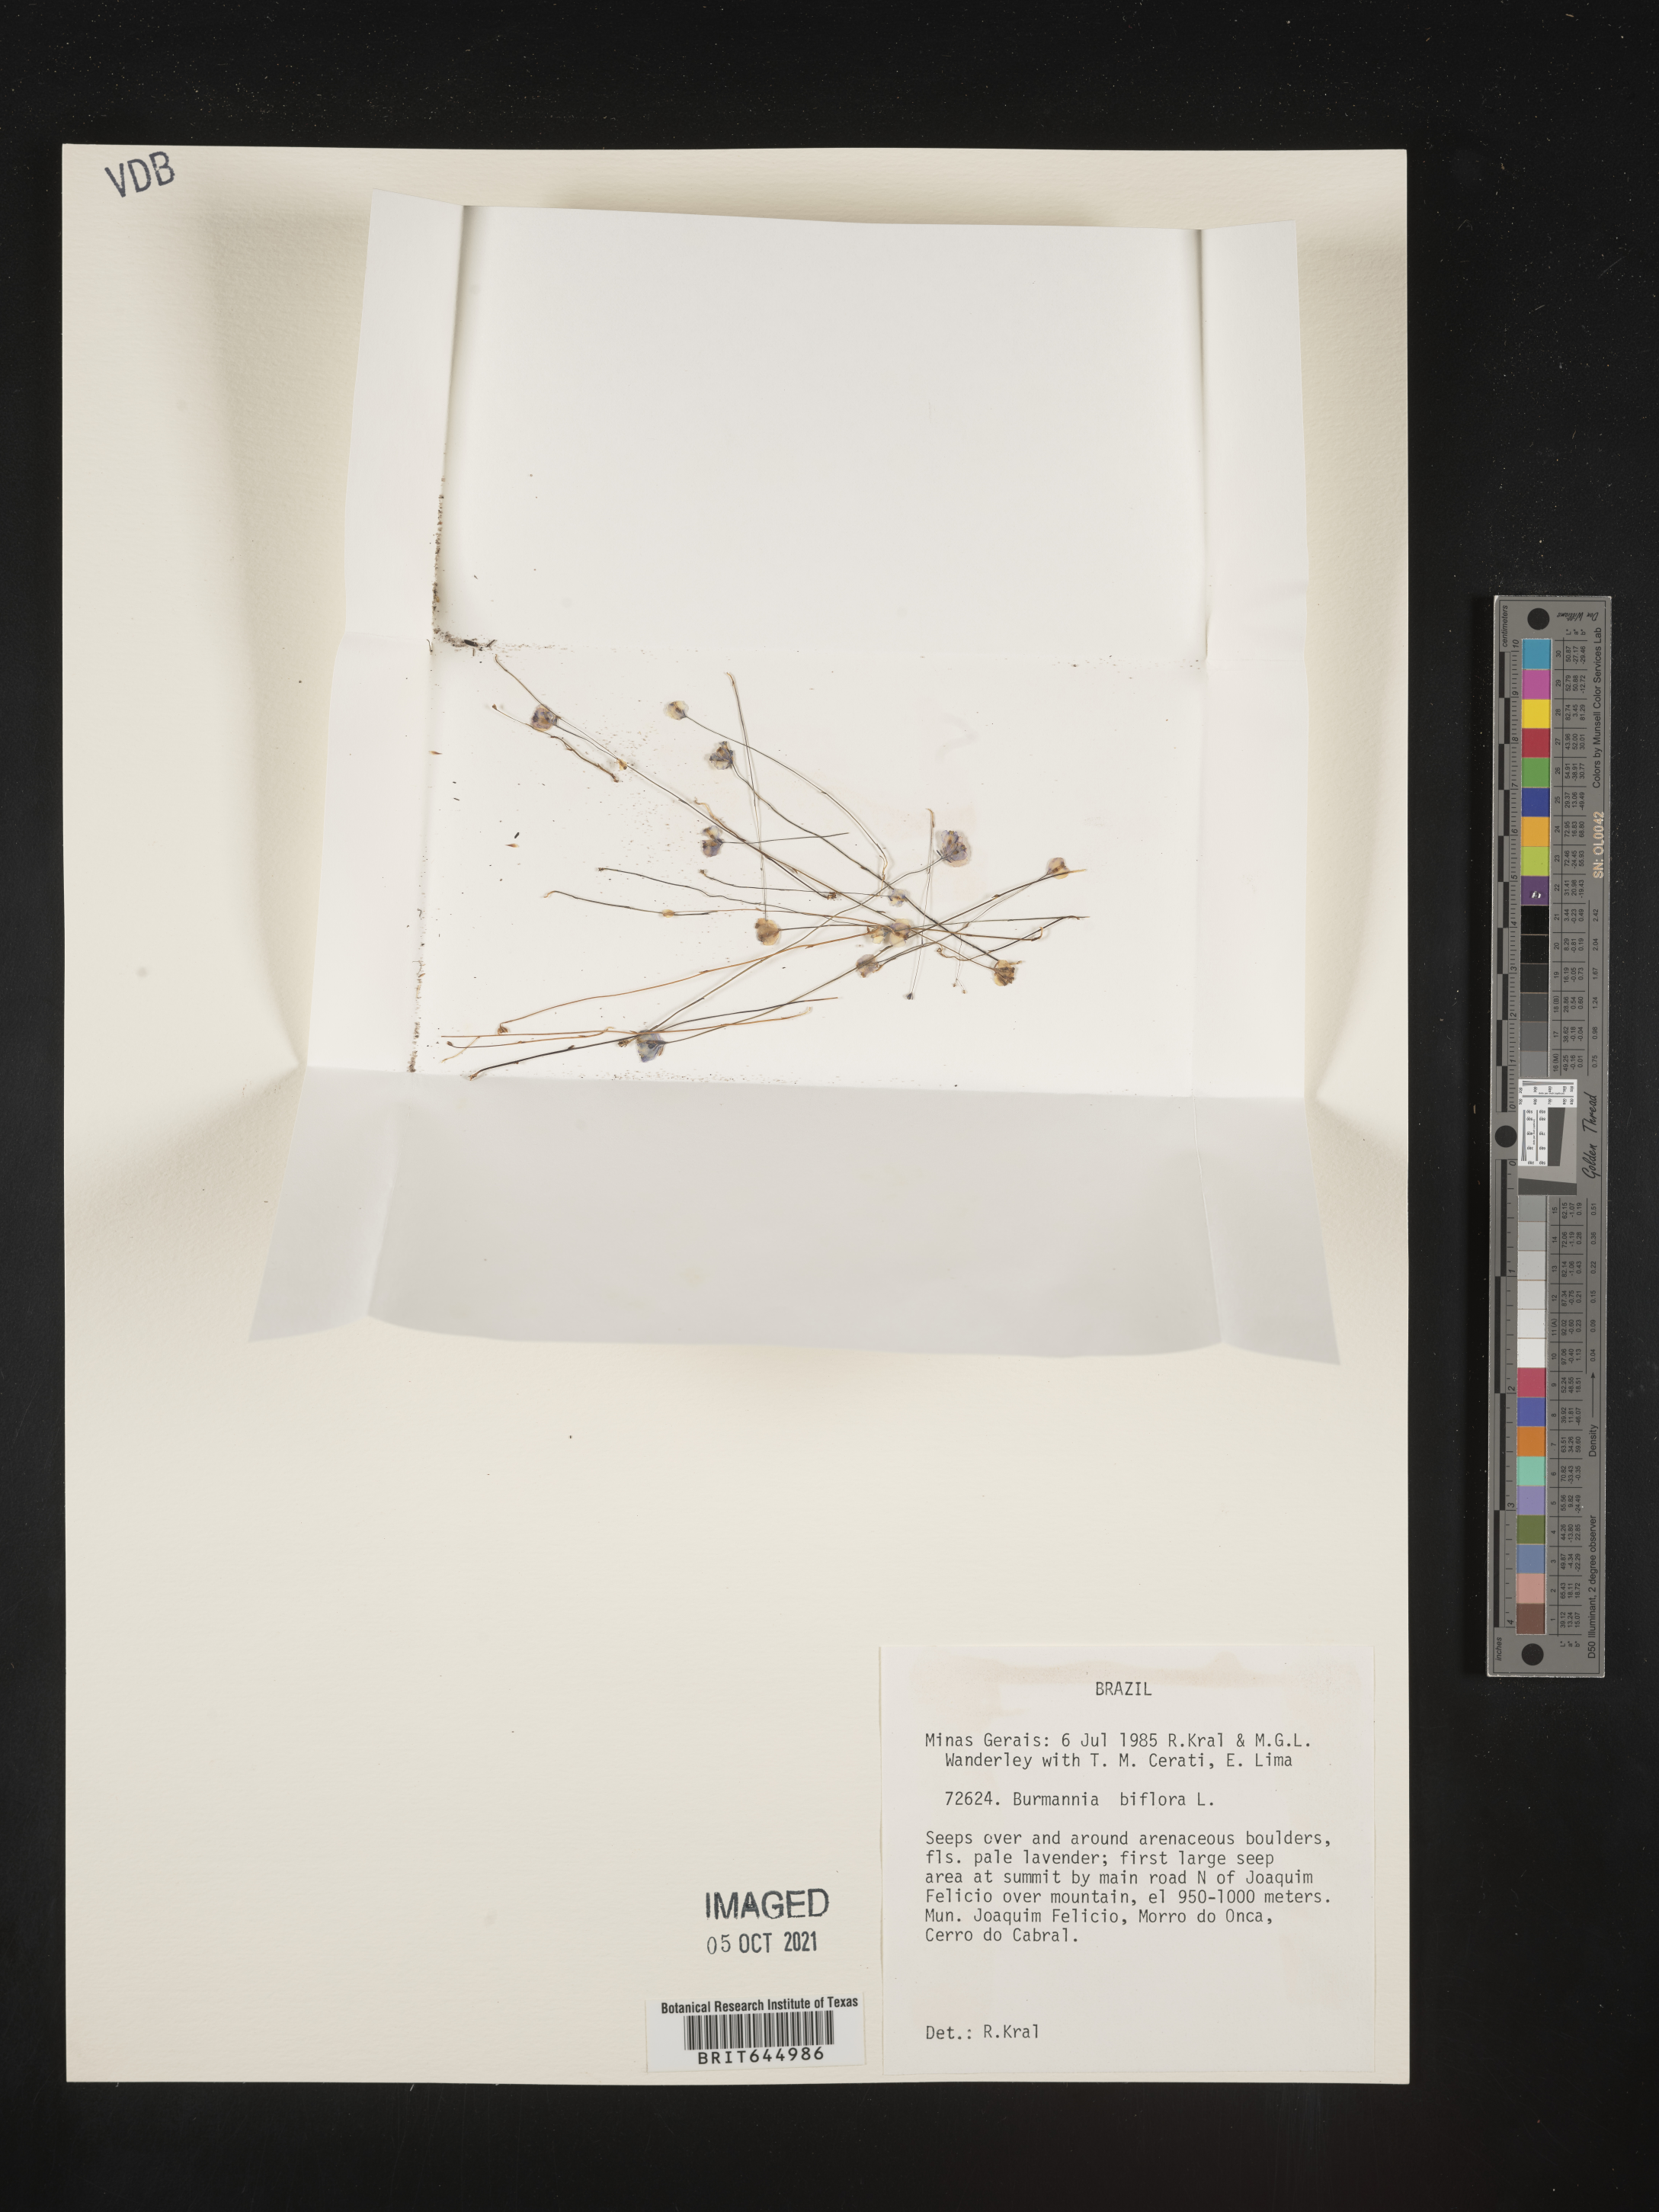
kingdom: Plantae
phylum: Tracheophyta
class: Liliopsida
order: Dioscoreales
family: Burmanniaceae
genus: Burmannia
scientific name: Burmannia biflora
